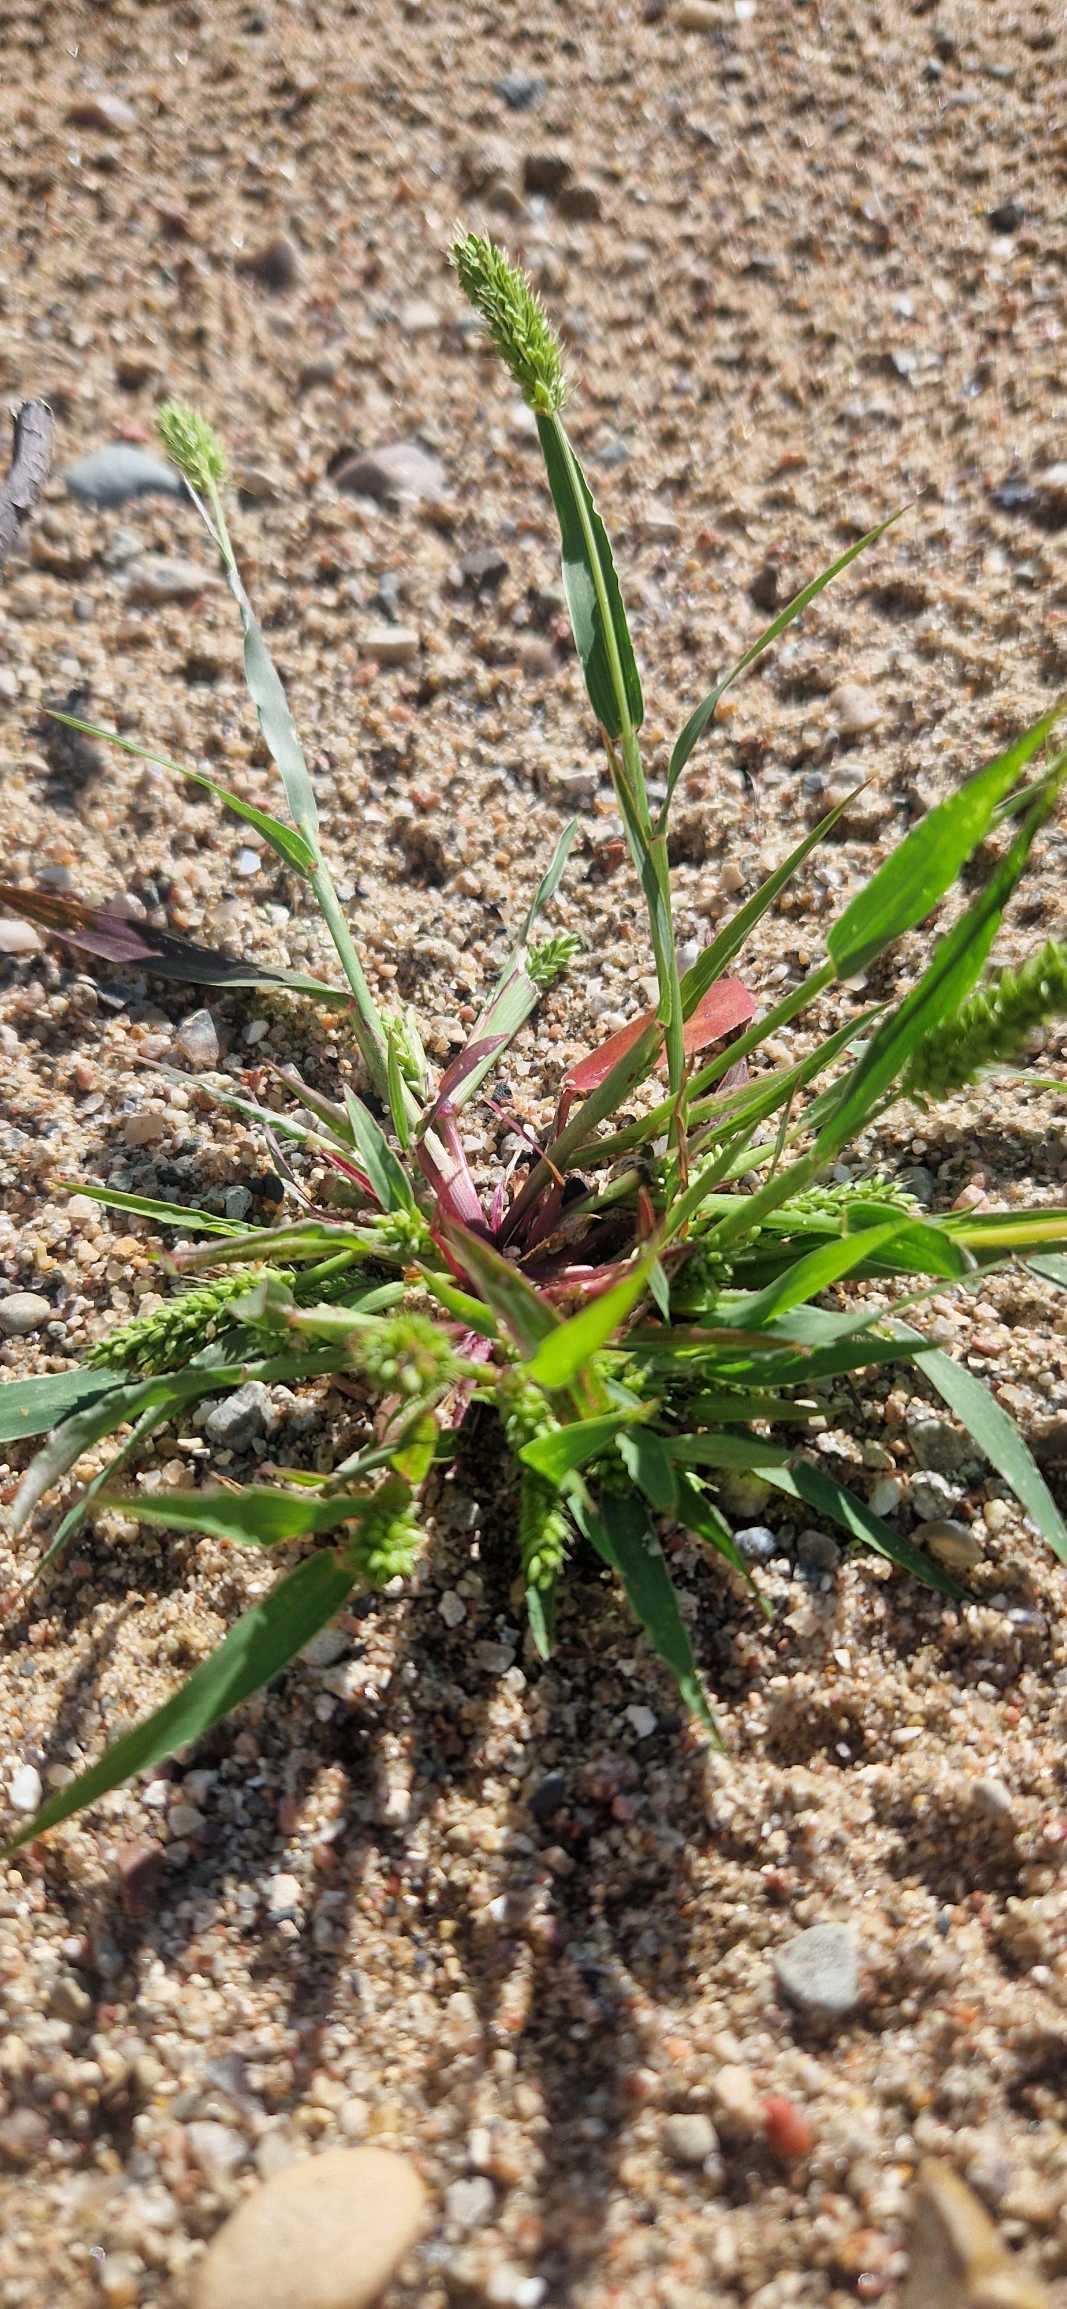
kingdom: Plantae
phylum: Tracheophyta
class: Liliopsida
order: Poales
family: Poaceae
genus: Setaria
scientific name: Setaria viridis
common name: Grøn skærmaks
